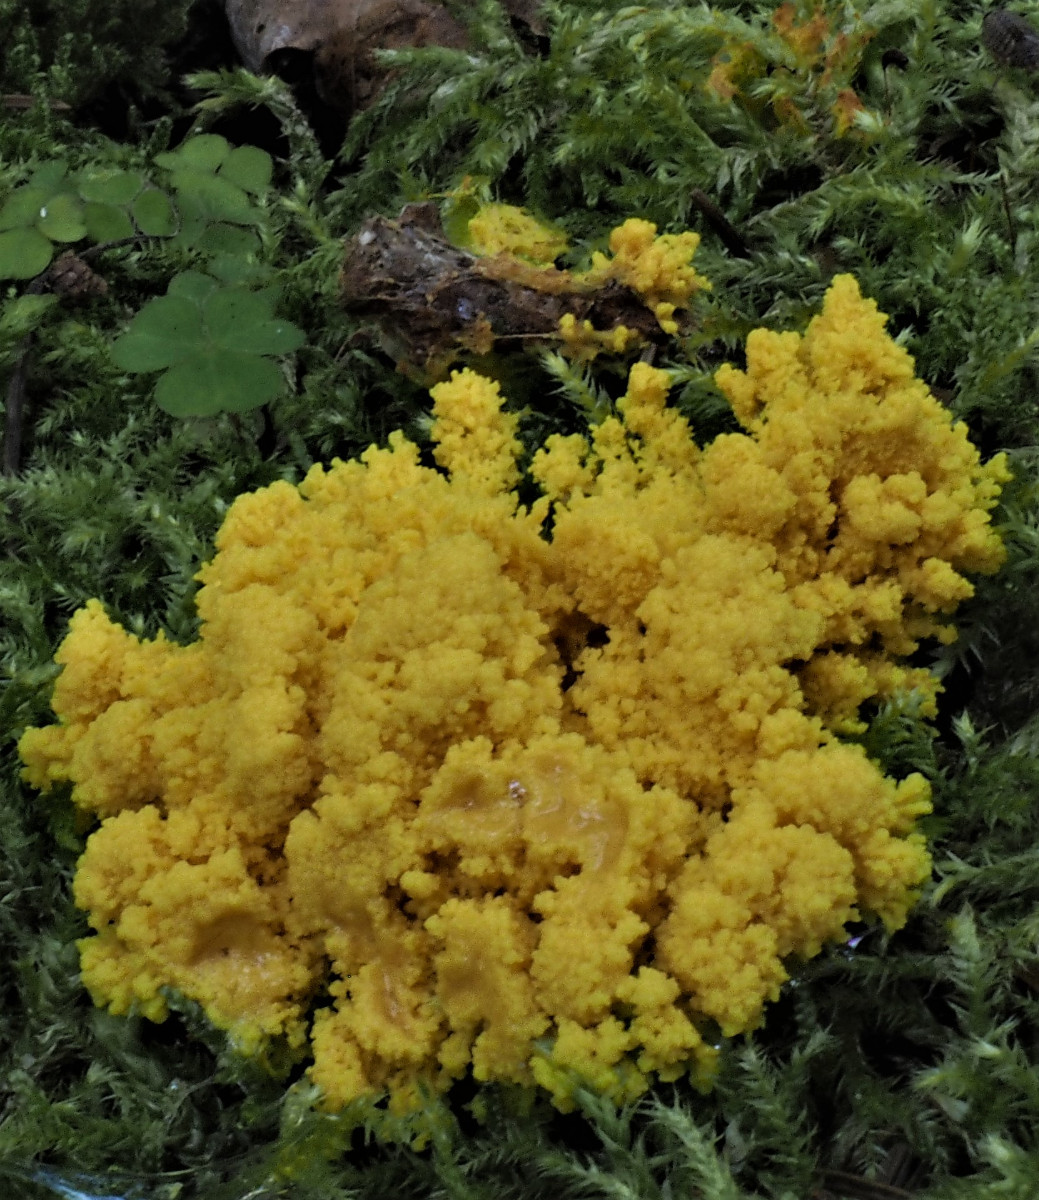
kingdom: Protozoa
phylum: Mycetozoa
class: Myxomycetes
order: Physarales
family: Physaraceae
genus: Fuligo
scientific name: Fuligo septica
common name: gul troldsmør
